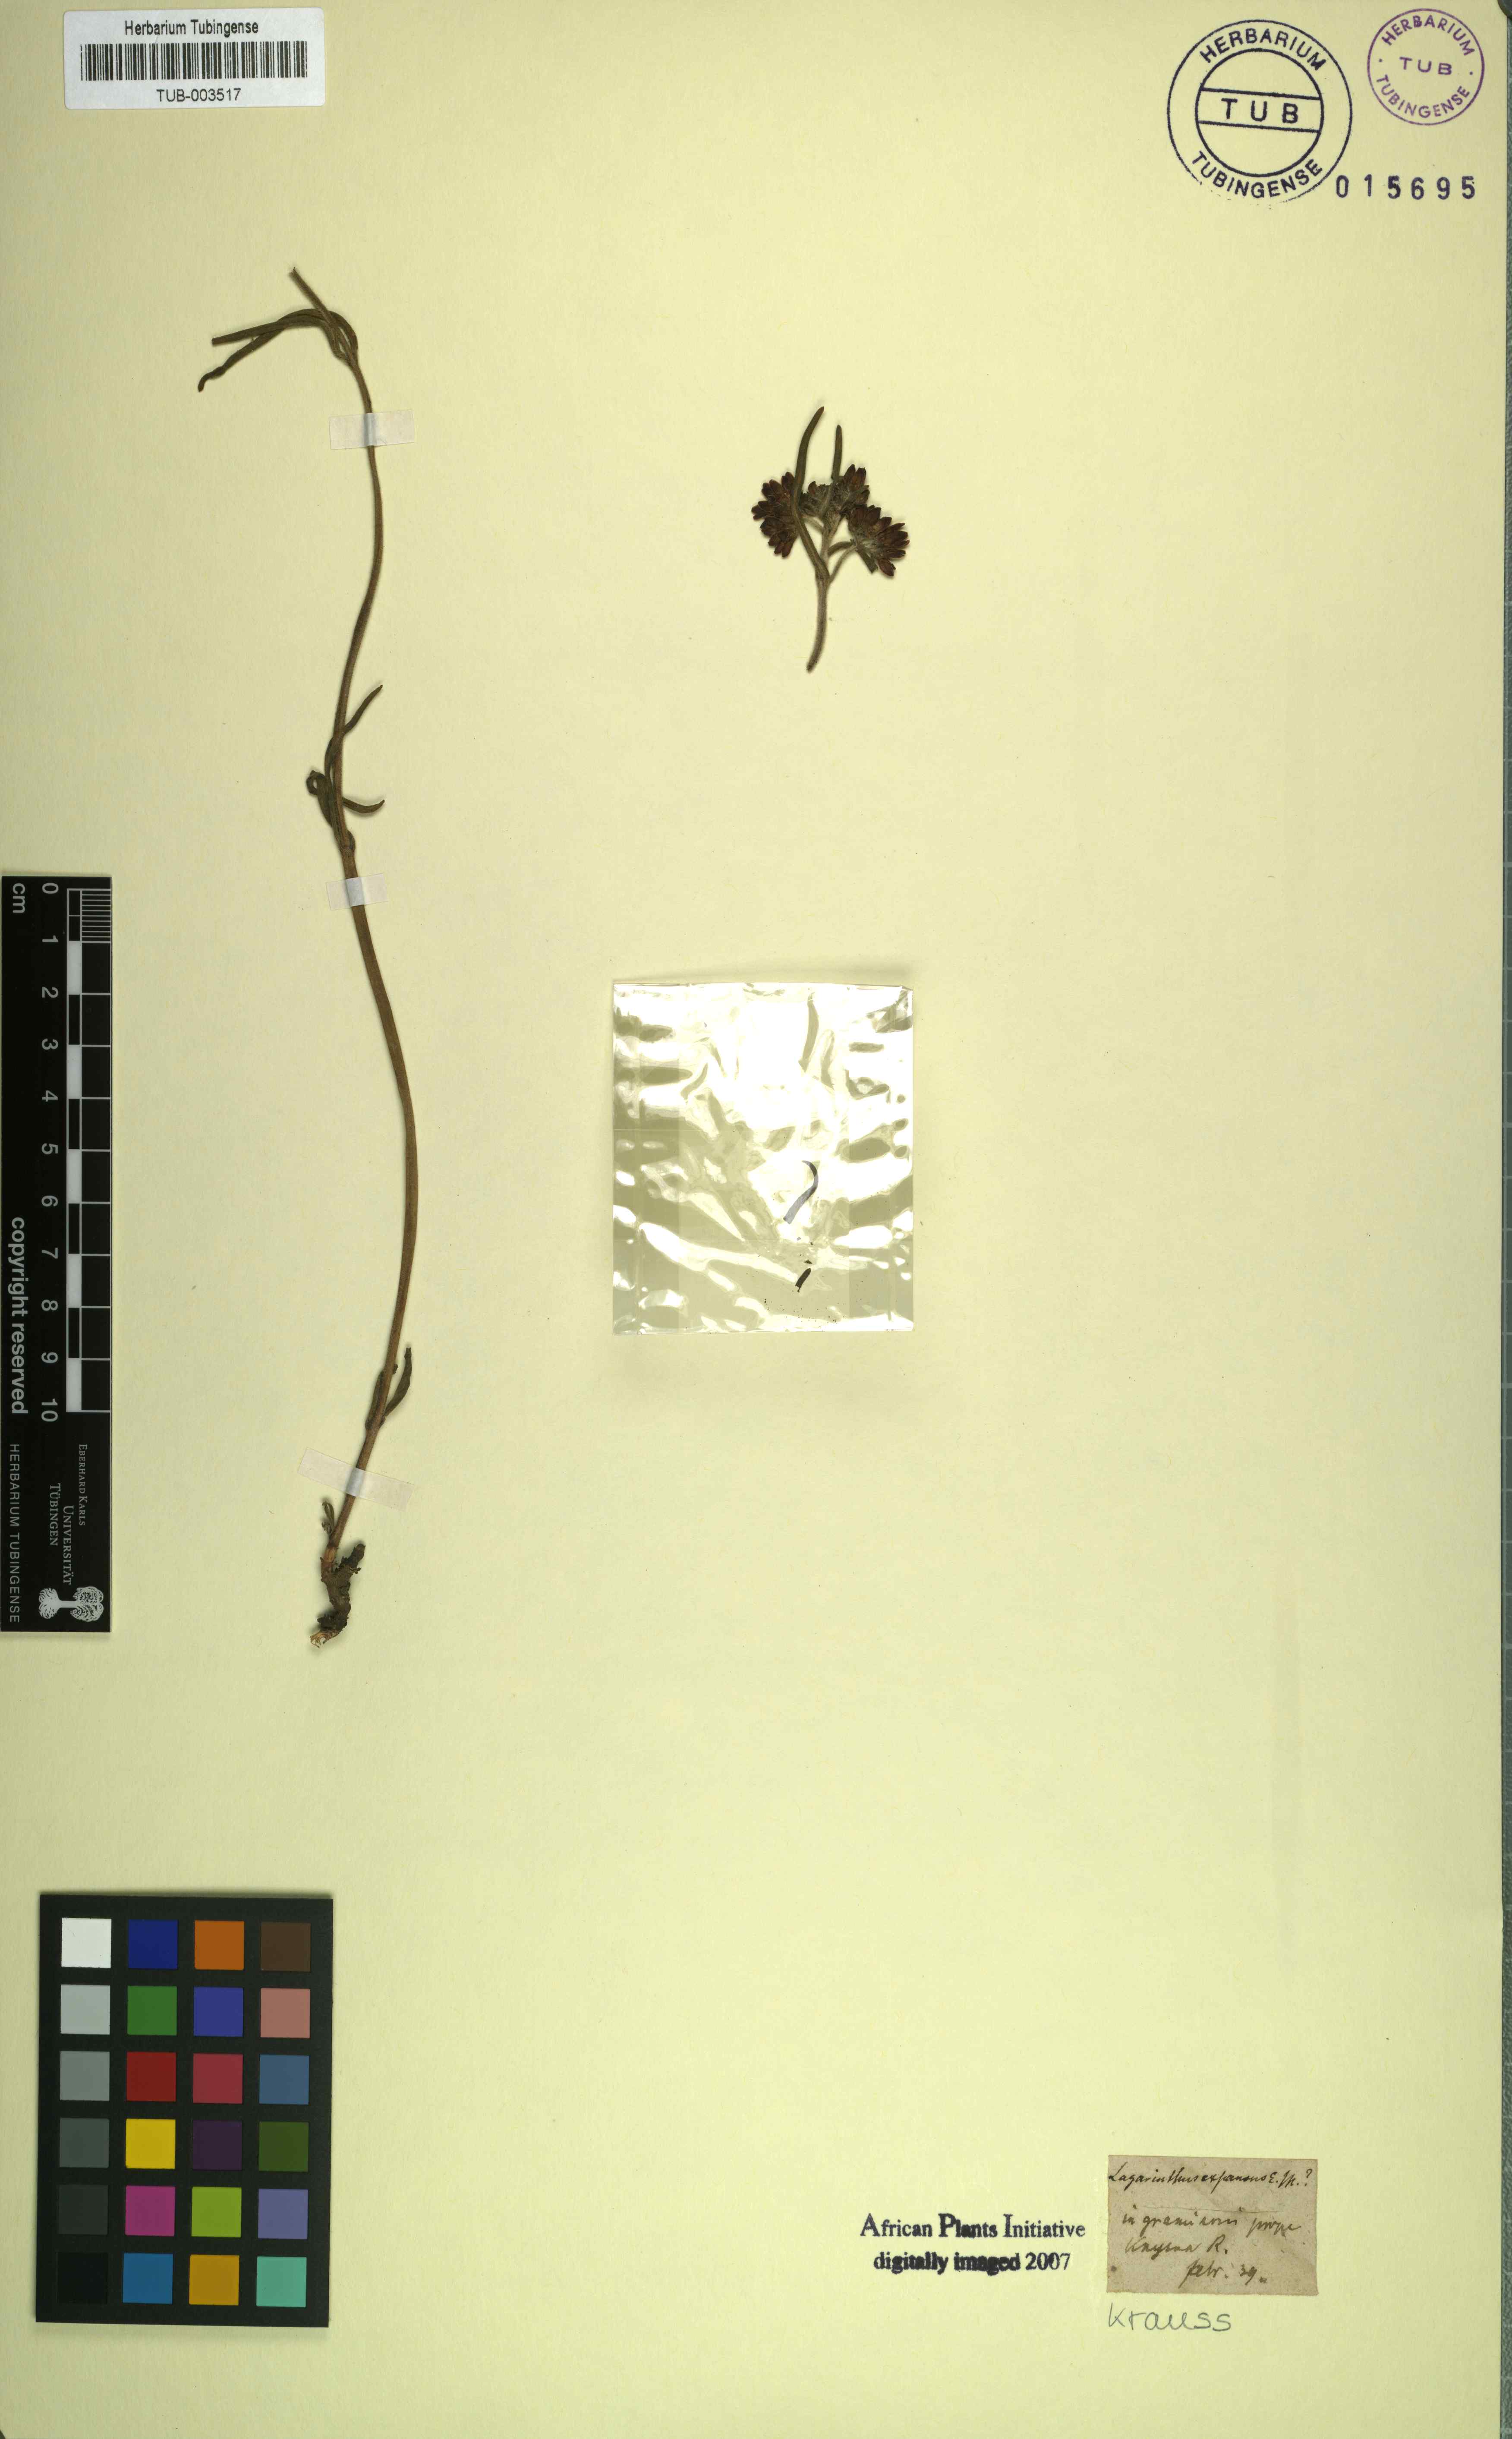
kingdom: Plantae
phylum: Tracheophyta
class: Magnoliopsida
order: Gentianales
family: Apocynaceae
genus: Asclepias
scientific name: Asclepias expansa
